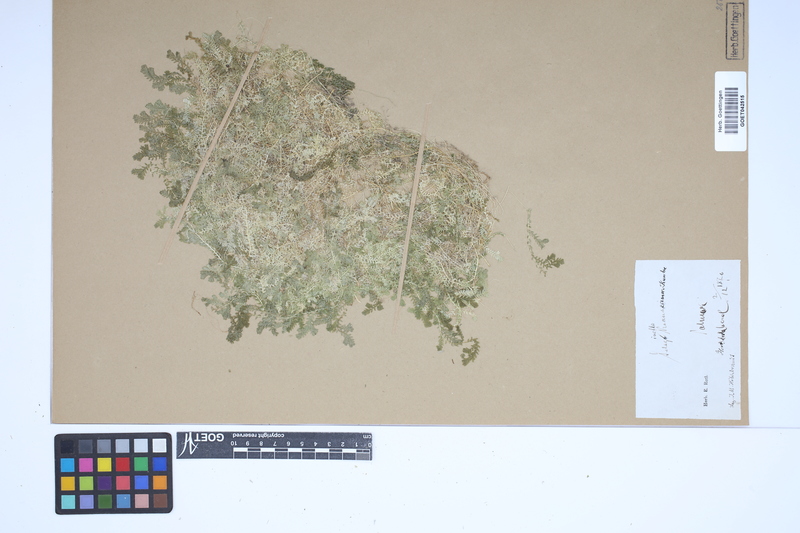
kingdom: Plantae
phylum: Tracheophyta
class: Lycopodiopsida
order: Selaginellales
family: Selaginellaceae
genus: Selaginella
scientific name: Selaginella kraussiana
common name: Krauss' spikemoss
